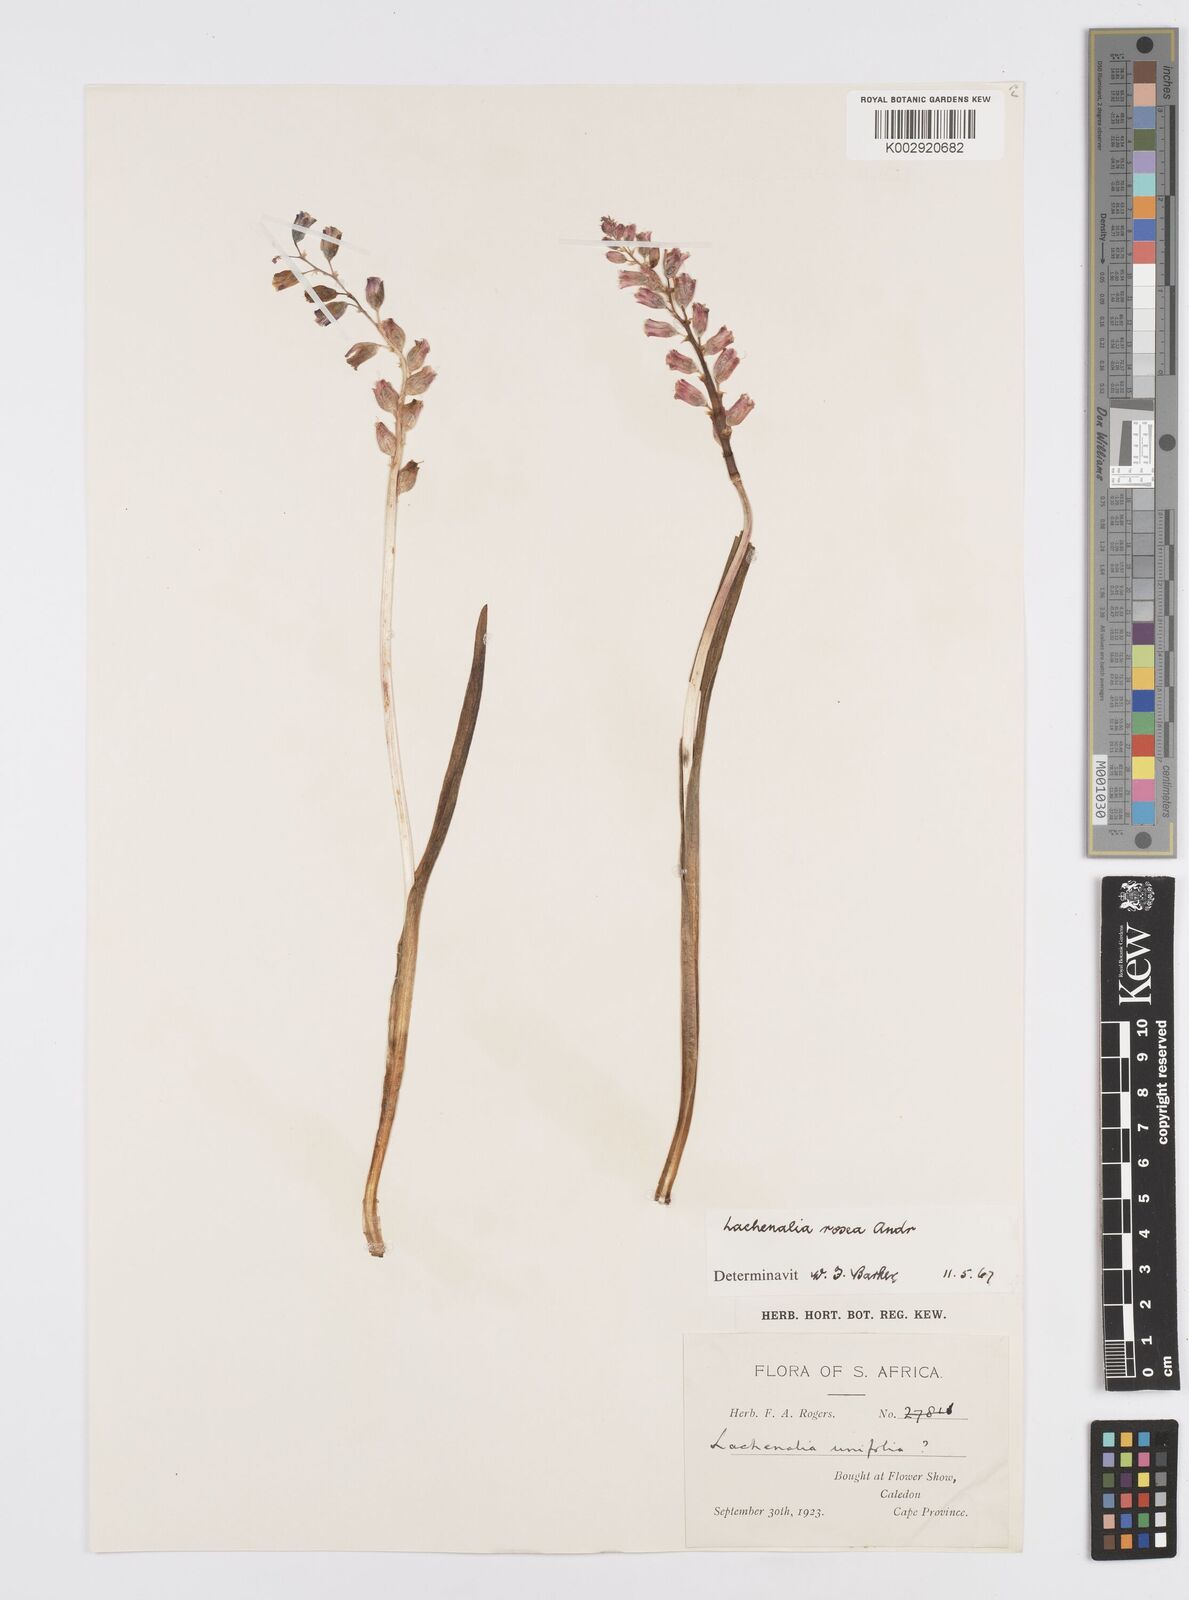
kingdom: Plantae
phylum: Tracheophyta
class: Liliopsida
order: Asparagales
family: Asparagaceae
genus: Lachenalia
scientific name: Lachenalia rosea
